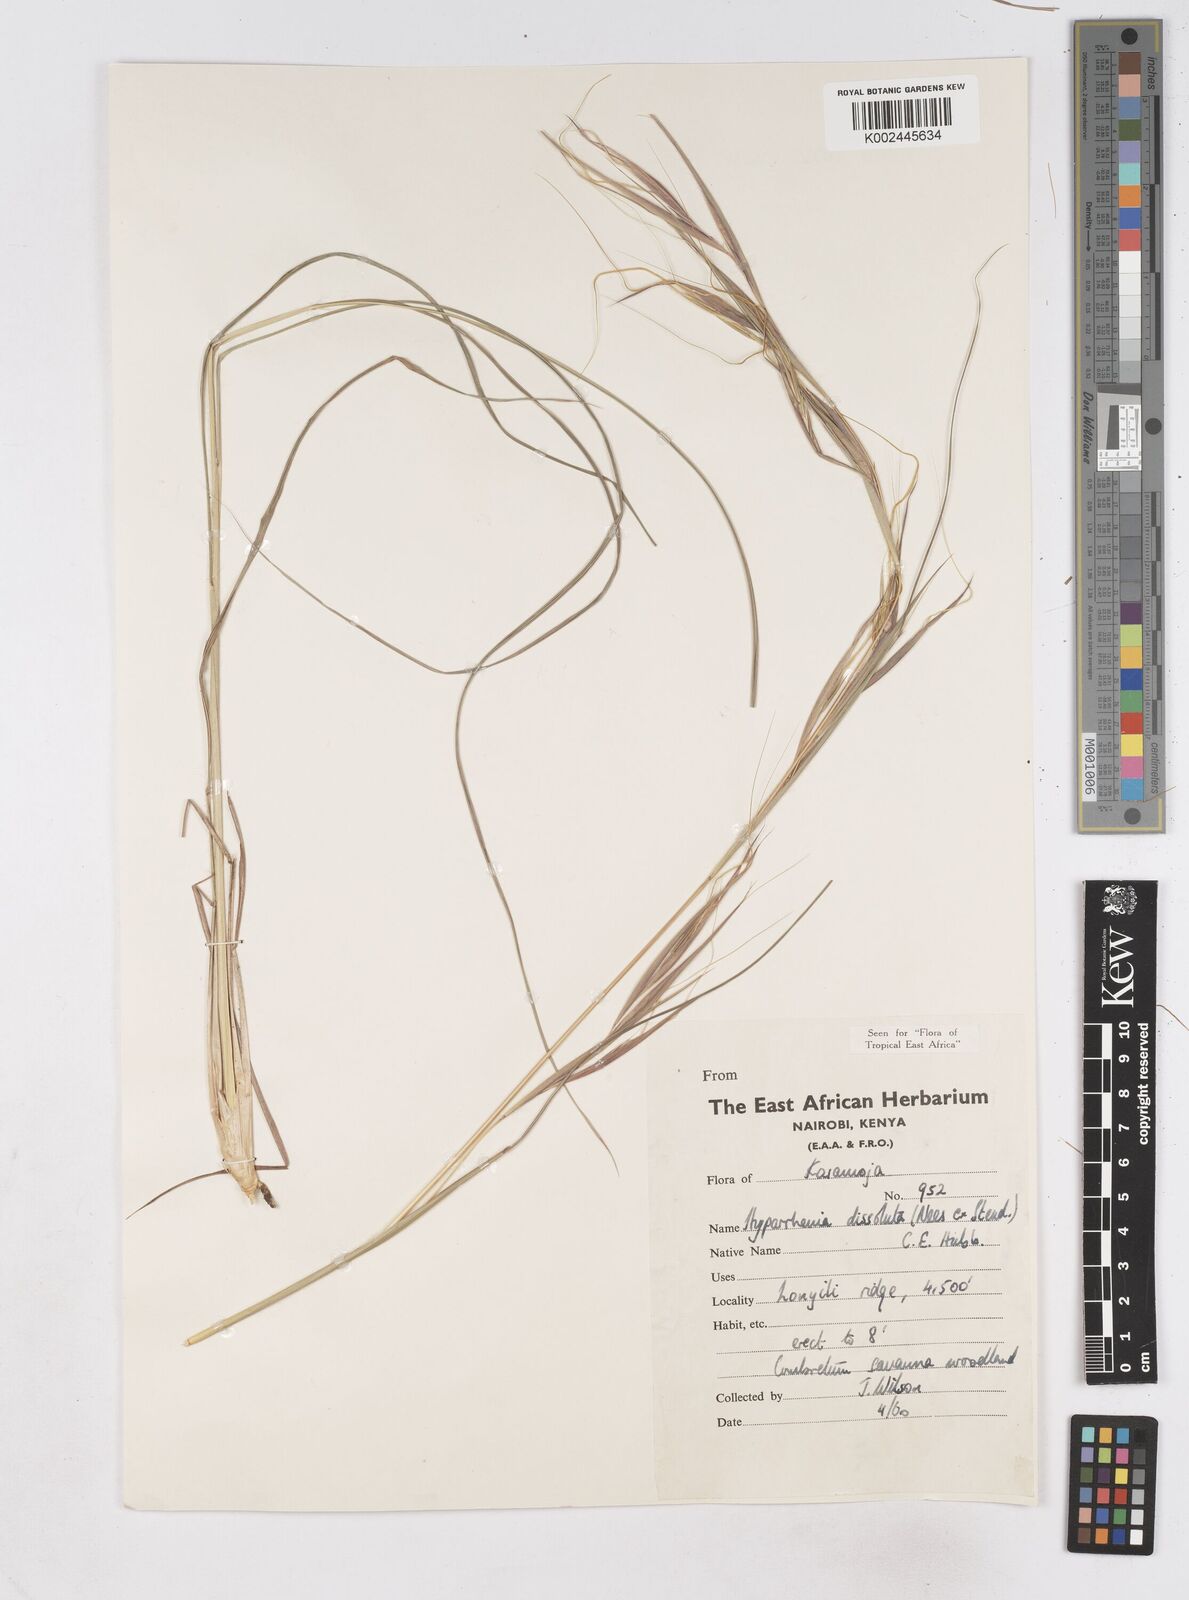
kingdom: Plantae
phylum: Tracheophyta
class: Liliopsida
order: Poales
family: Poaceae
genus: Hyperthelia
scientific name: Hyperthelia dissoluta
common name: Yellow thatching grass
